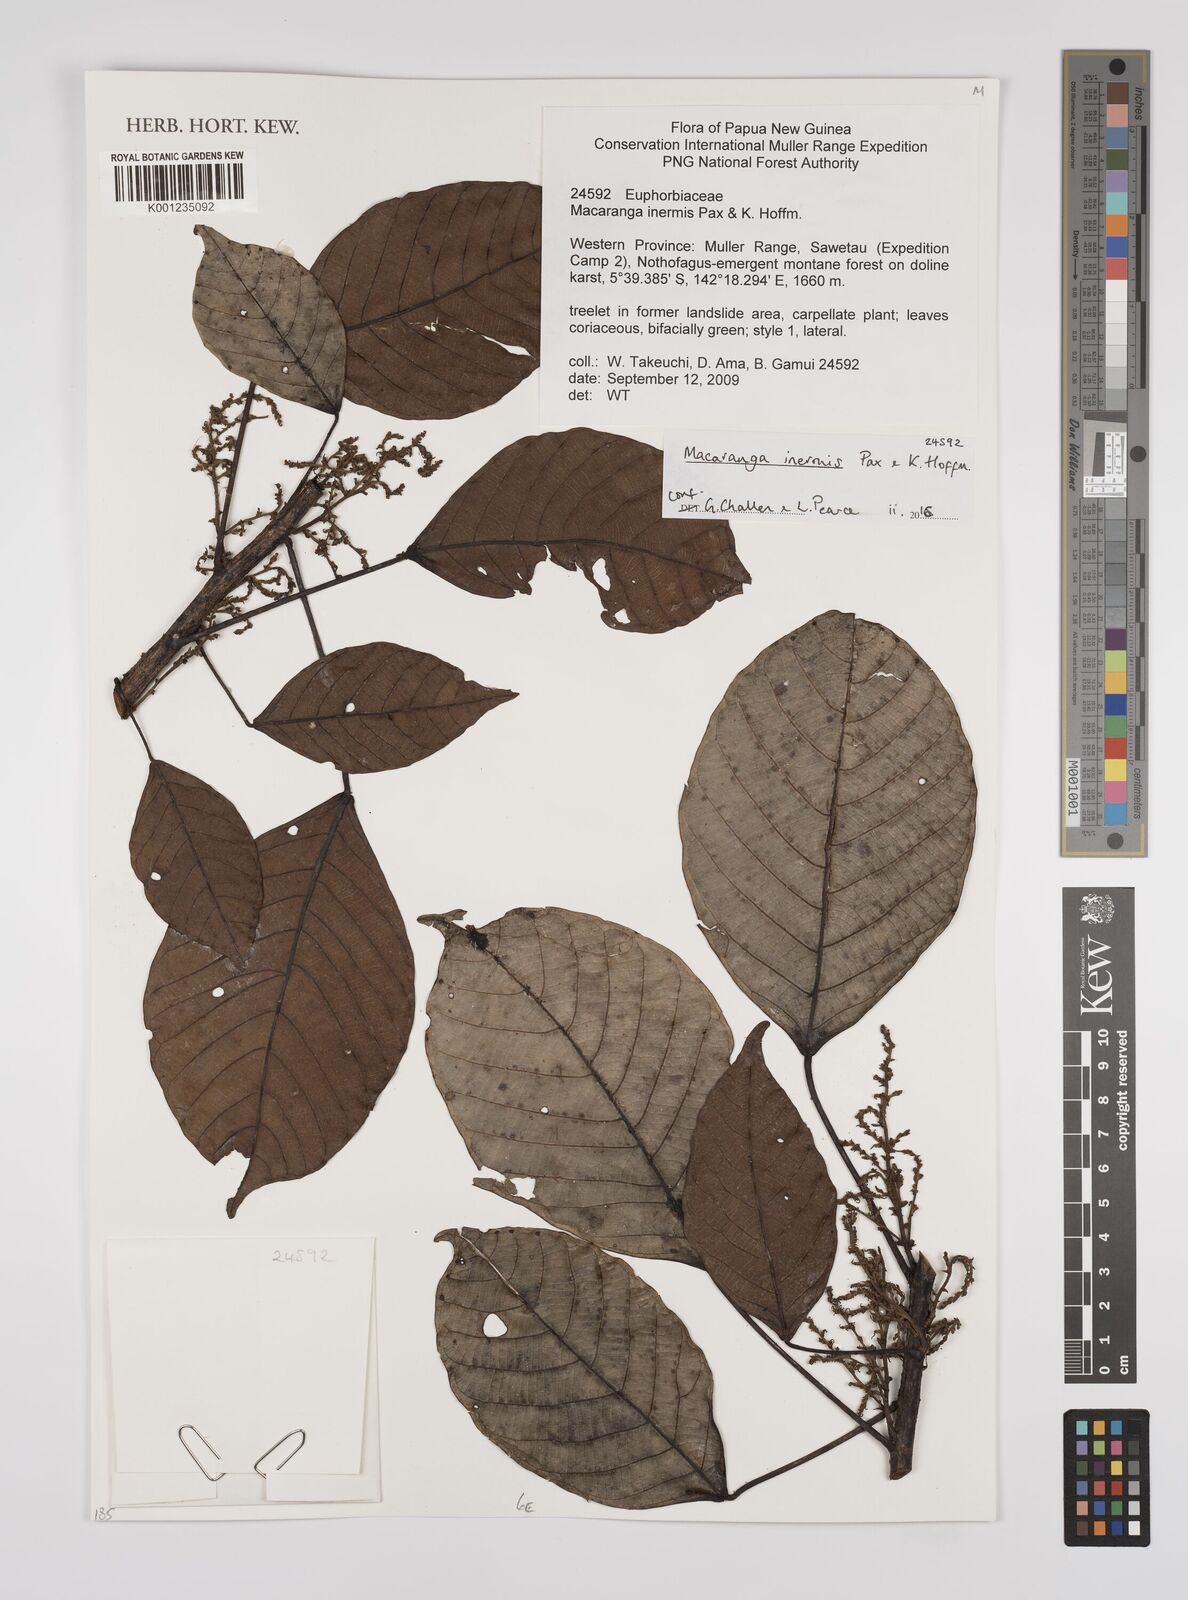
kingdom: Plantae
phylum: Tracheophyta
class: Magnoliopsida
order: Malpighiales
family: Euphorbiaceae
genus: Macaranga
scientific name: Macaranga inermis
